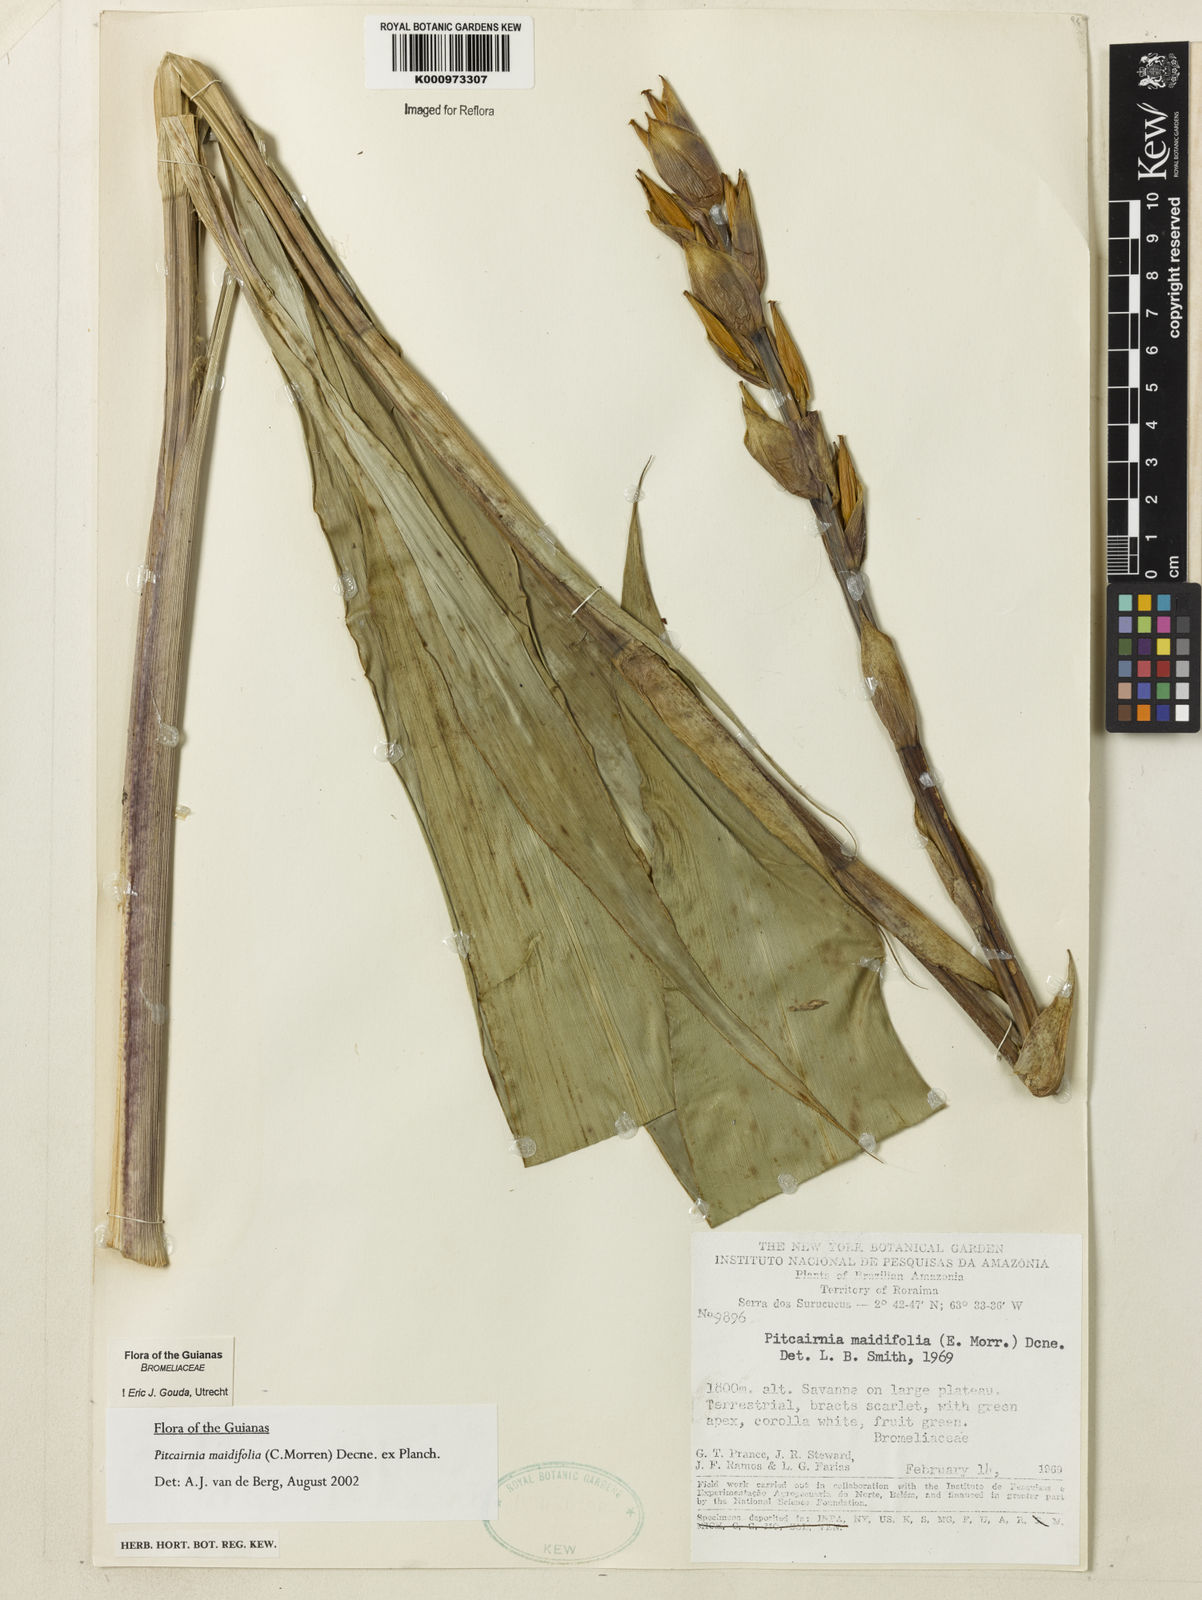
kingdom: Plantae
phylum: Tracheophyta
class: Liliopsida
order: Poales
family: Bromeliaceae
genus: Pitcairnia
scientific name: Pitcairnia
